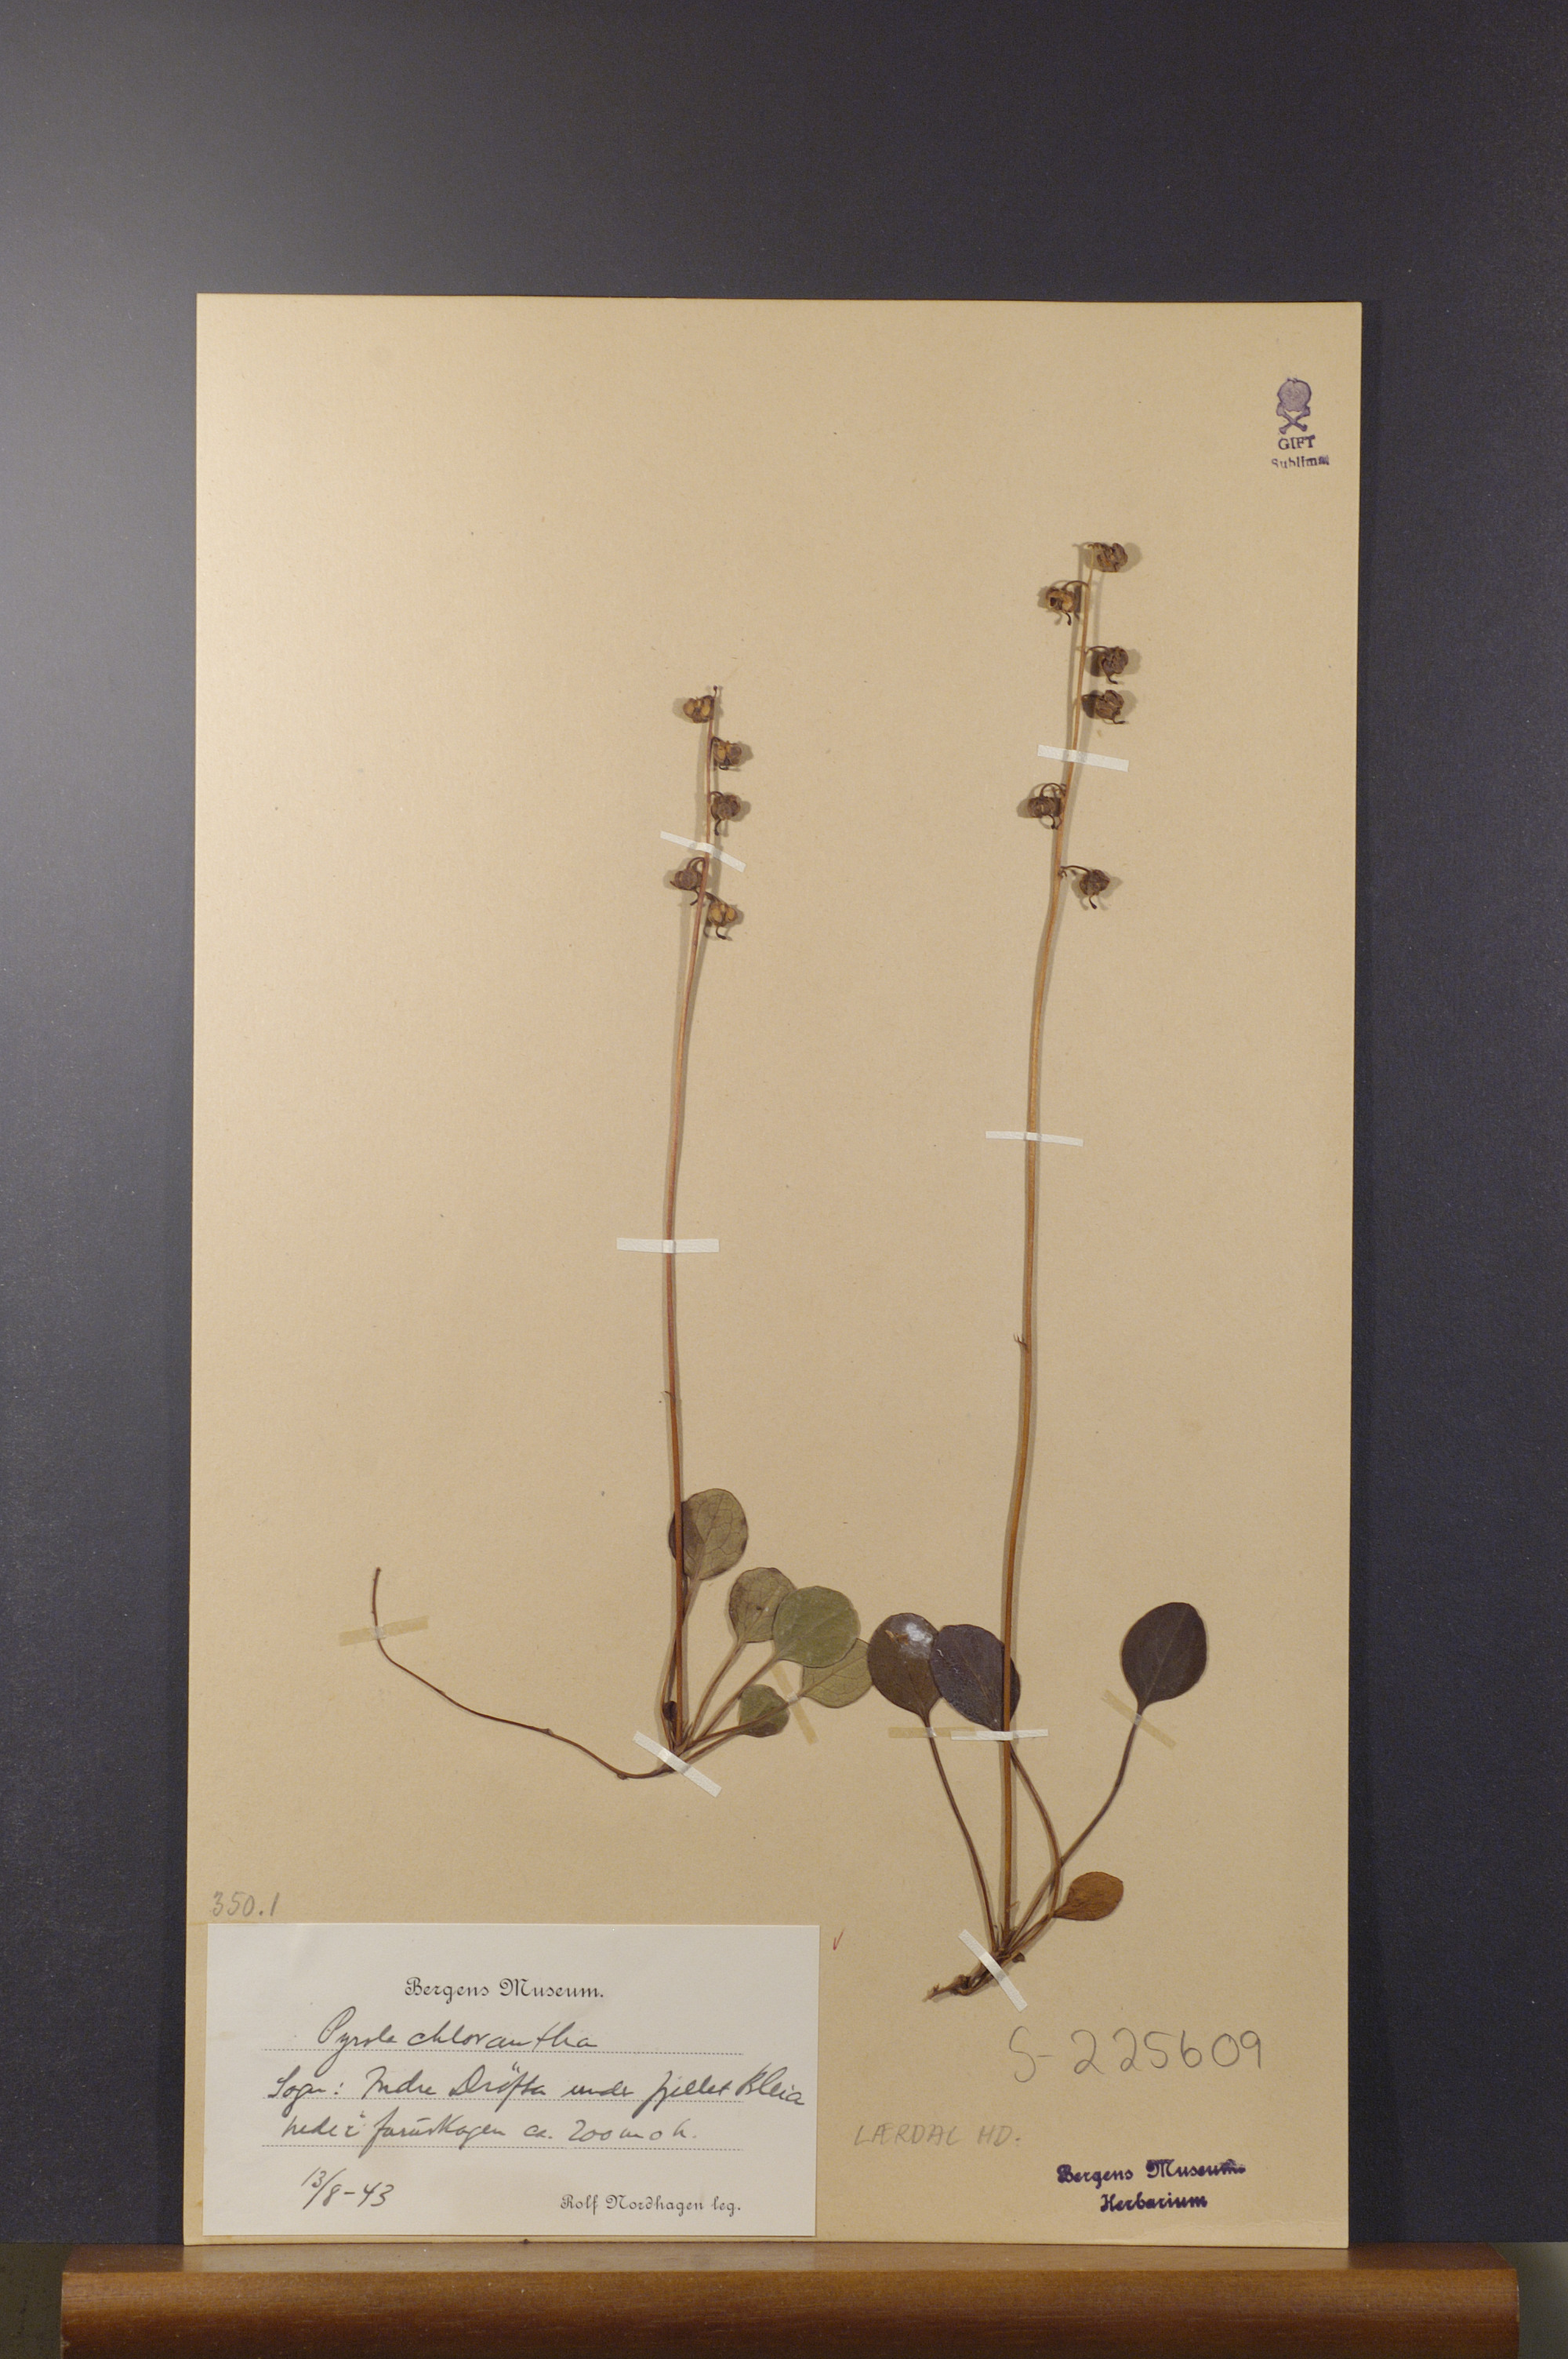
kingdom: Plantae
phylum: Tracheophyta
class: Magnoliopsida
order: Ericales
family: Ericaceae
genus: Pyrola
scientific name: Pyrola chlorantha
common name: Green wintergreen
